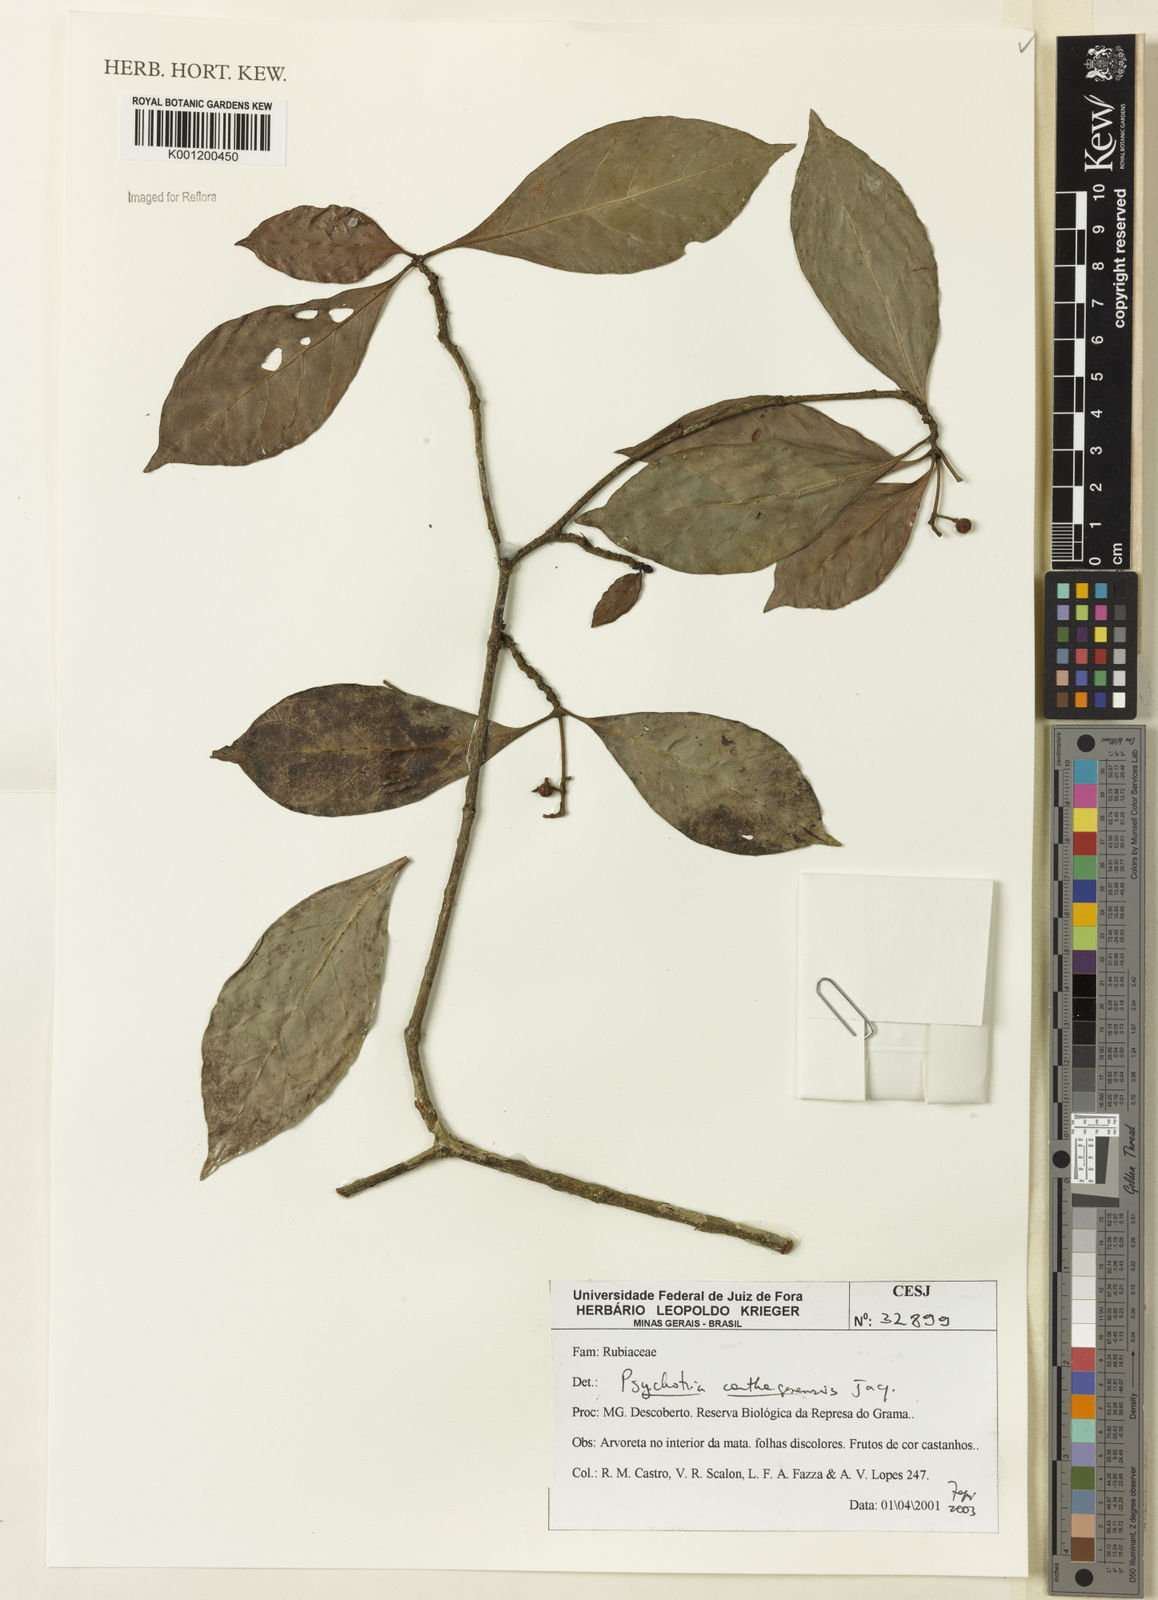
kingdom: Plantae
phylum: Tracheophyta
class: Magnoliopsida
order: Gentianales
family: Rubiaceae
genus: Psychotria
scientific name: Psychotria carthagenensis
